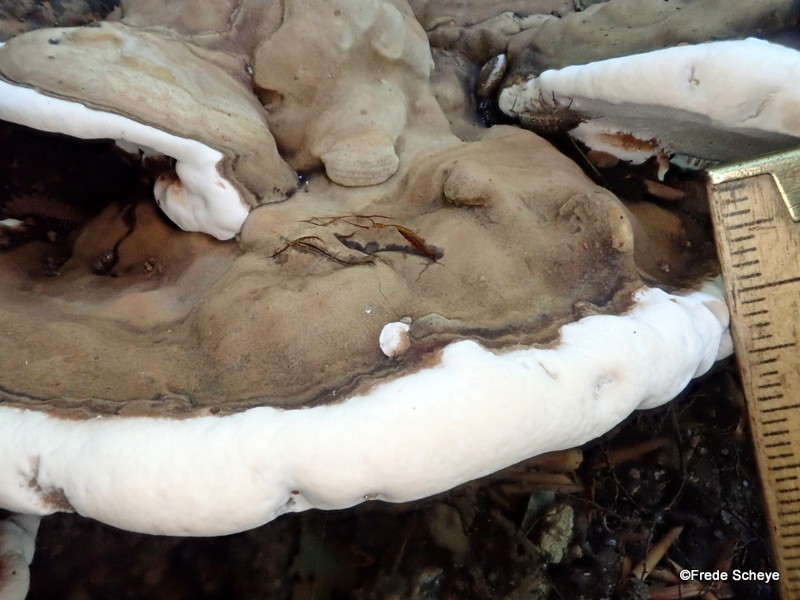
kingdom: Fungi
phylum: Basidiomycota
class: Agaricomycetes
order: Polyporales
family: Polyporaceae
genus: Ganoderma
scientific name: Ganoderma applanatum
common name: flad lakporesvamp
